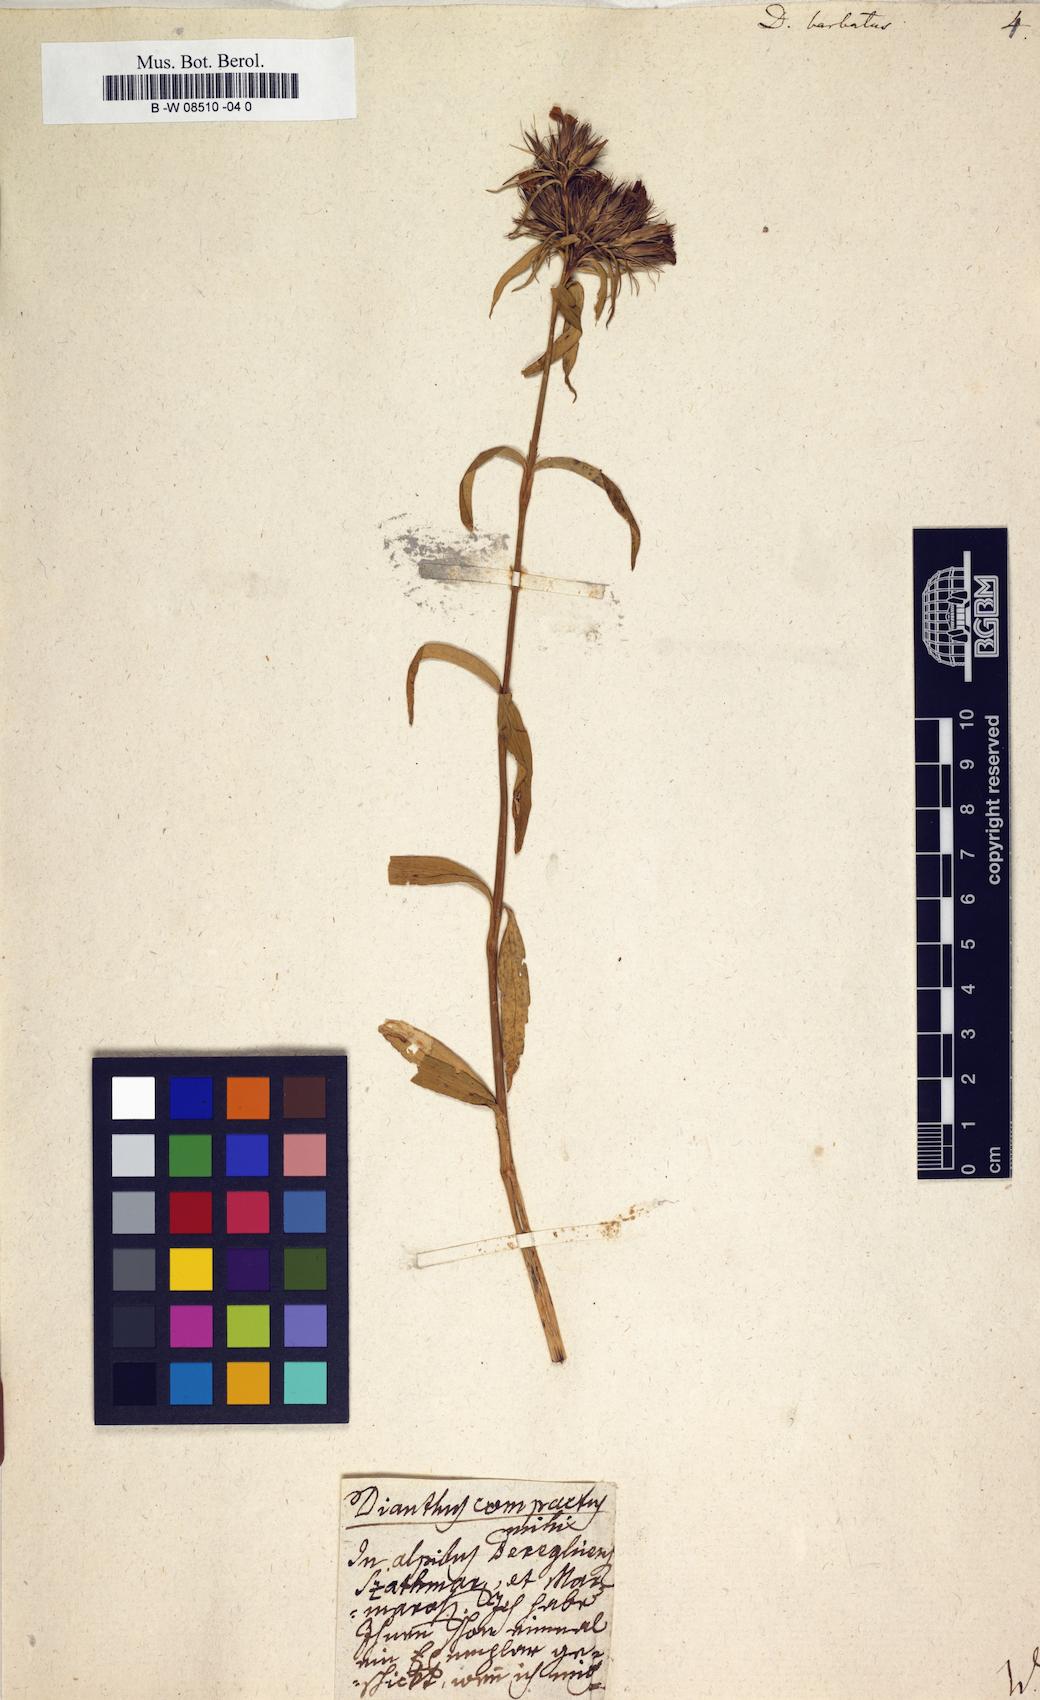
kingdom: Plantae
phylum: Tracheophyta
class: Magnoliopsida
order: Caryophyllales
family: Caryophyllaceae
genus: Dianthus
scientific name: Dianthus barbatus
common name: Sweet-william
